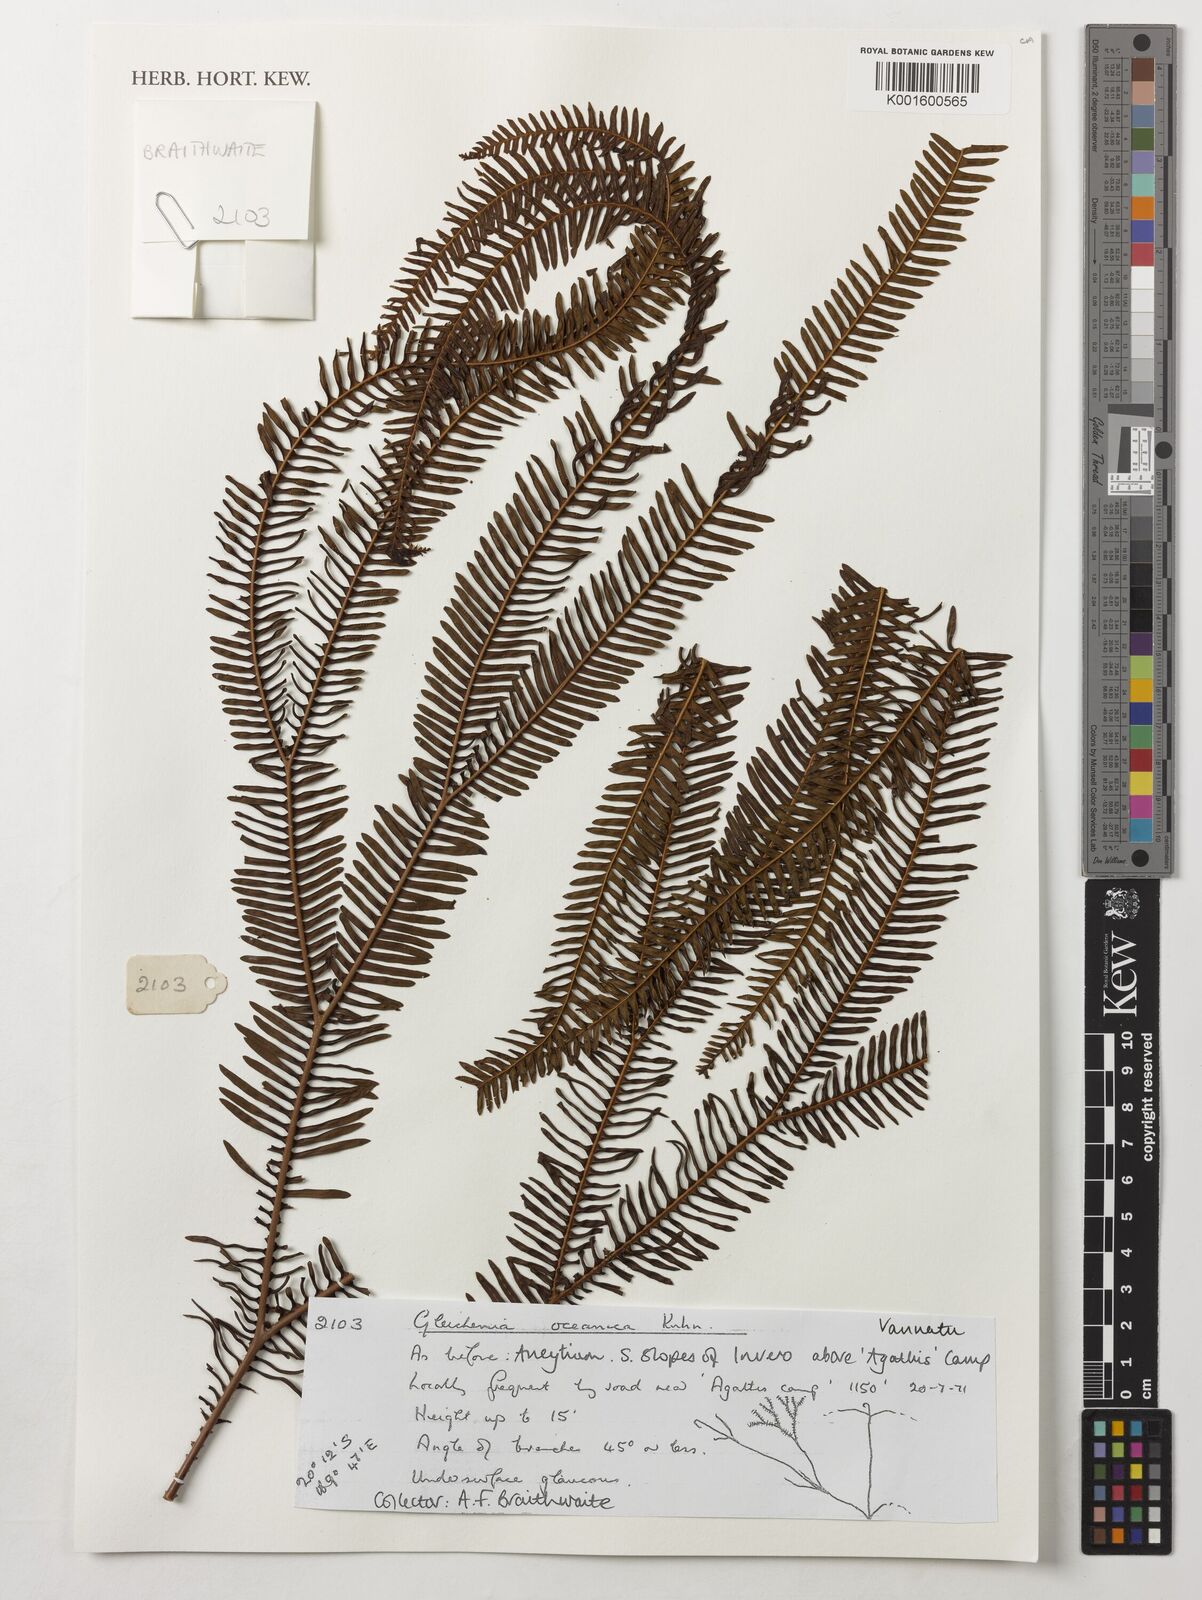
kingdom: Plantae
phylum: Tracheophyta
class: Polypodiopsida
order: Gleicheniales
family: Gleicheniaceae
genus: Sticherus
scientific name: Sticherus oceanicus
